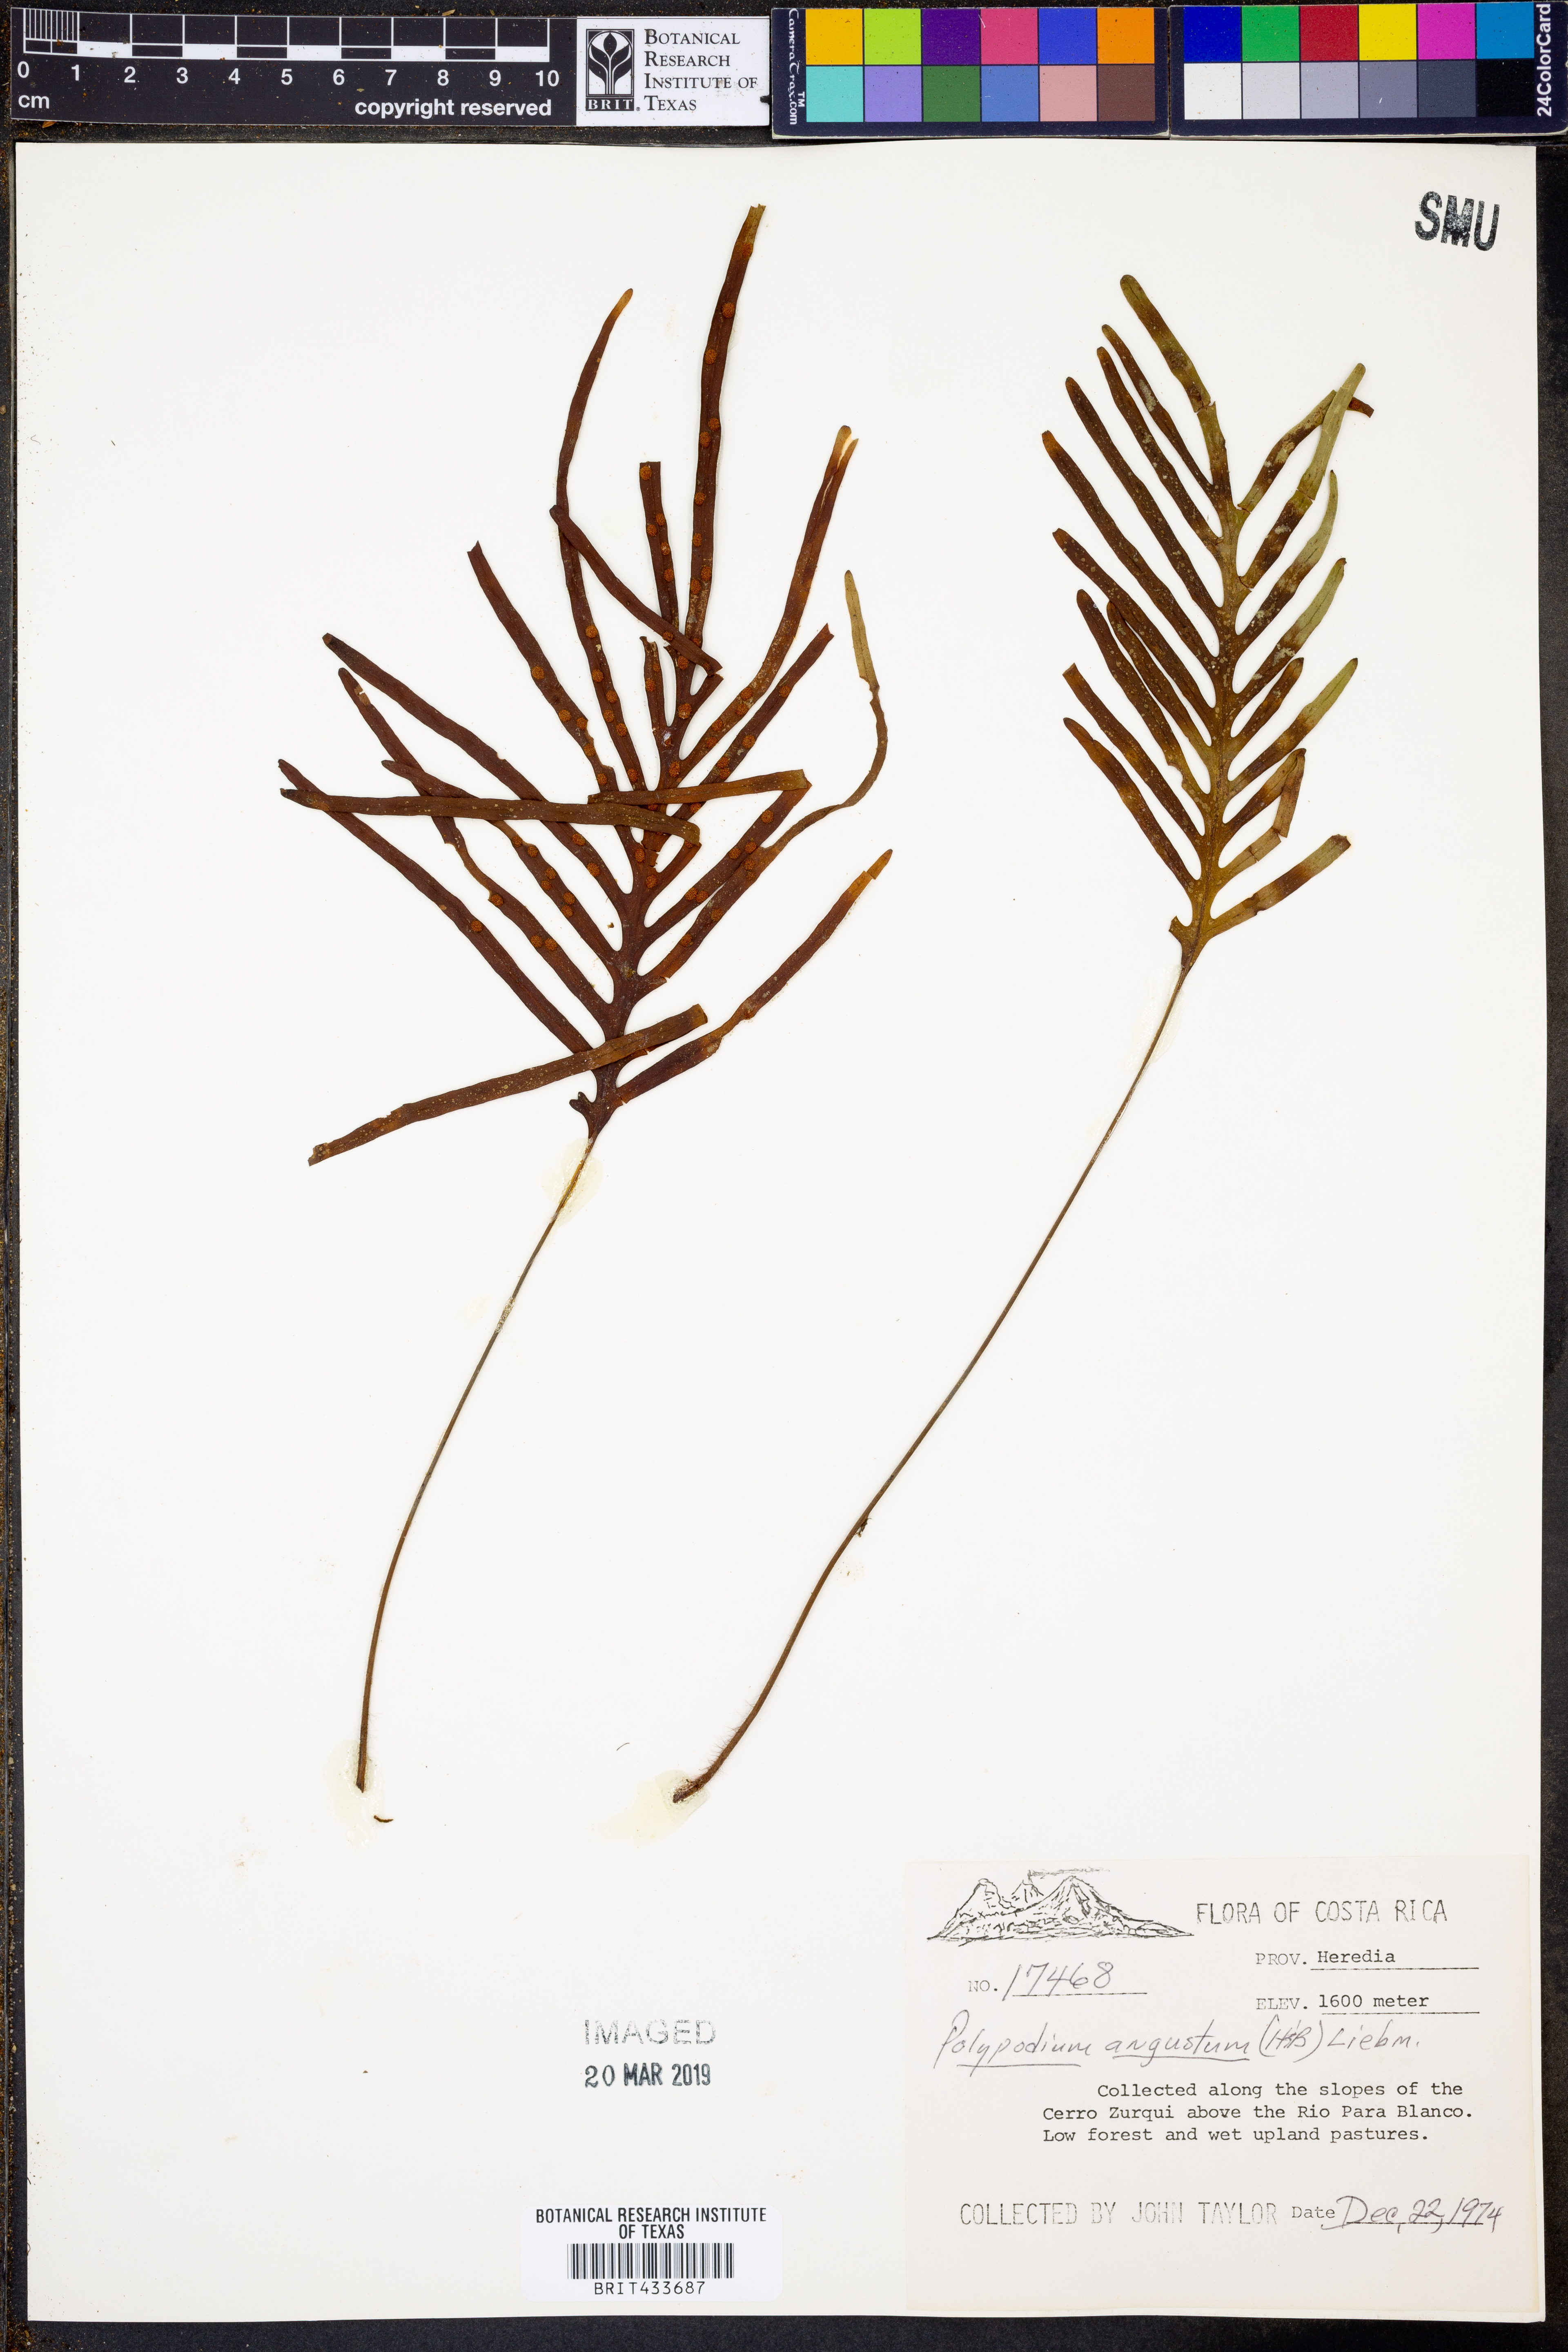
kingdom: Plantae
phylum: Tracheophyta
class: Polypodiopsida
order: Polypodiales
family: Polypodiaceae
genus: Pleopeltis
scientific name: Pleopeltis angusta
